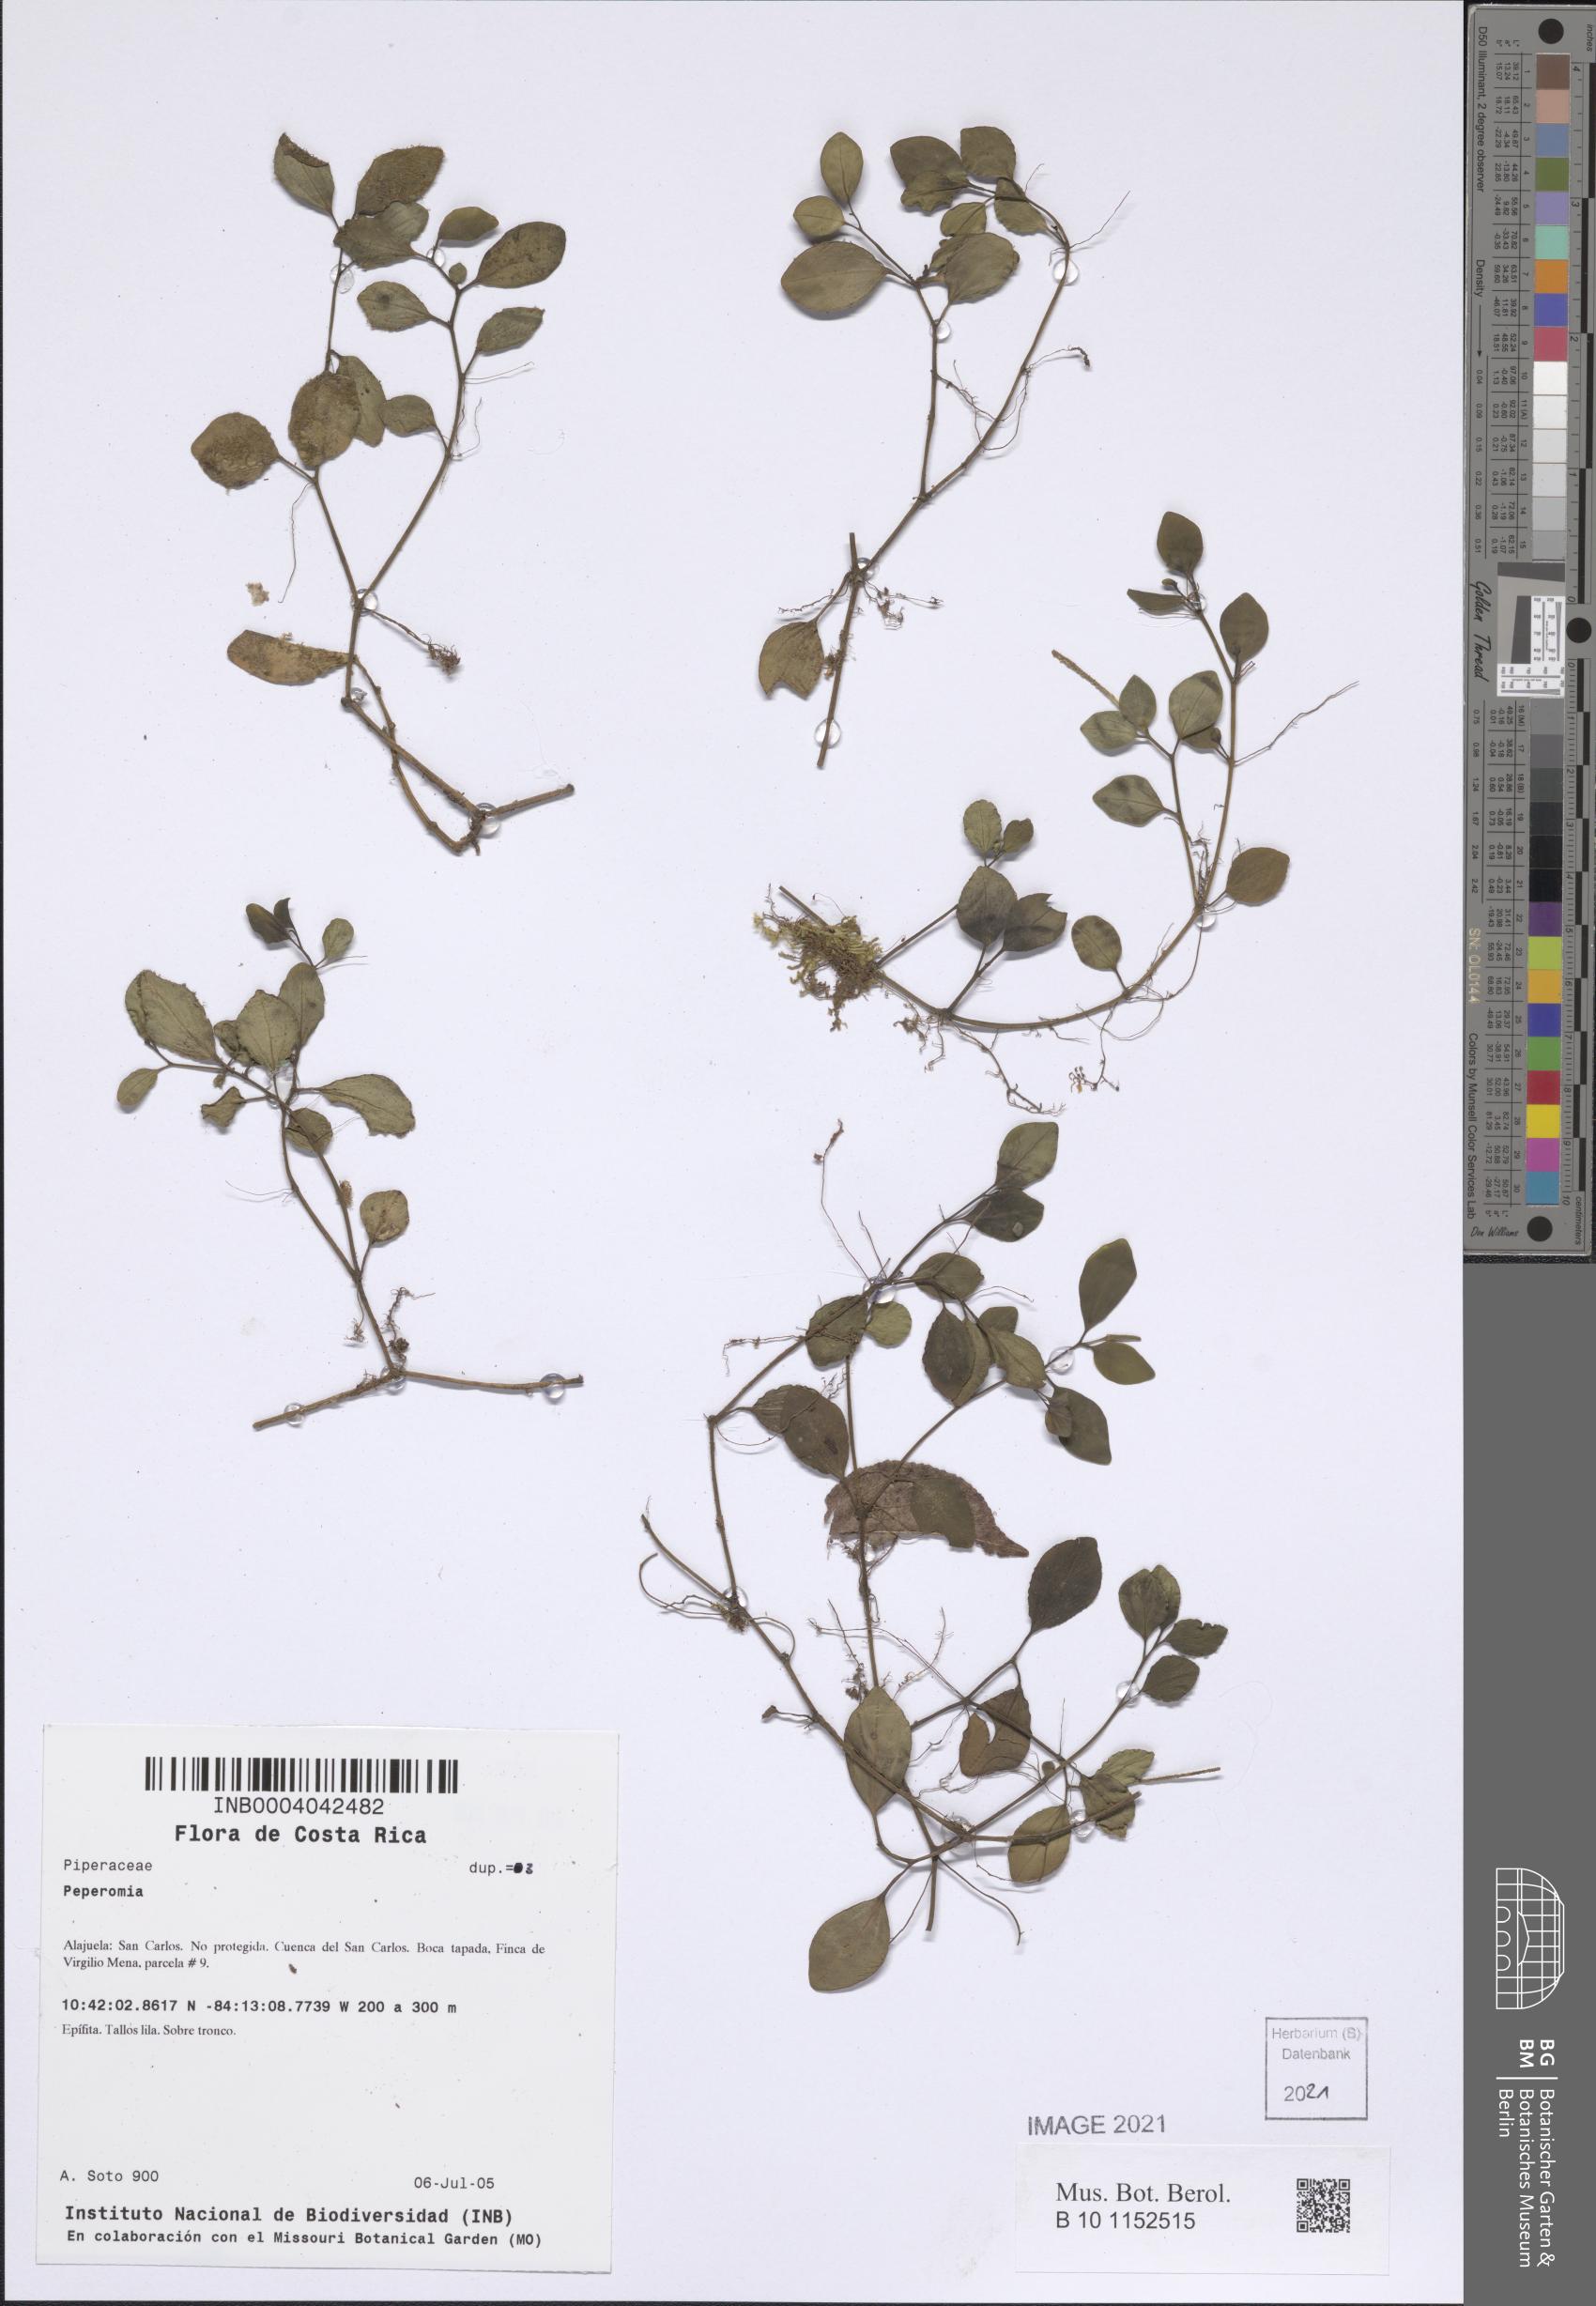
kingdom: Plantae
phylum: Tracheophyta
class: Magnoliopsida
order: Piperales
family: Piperaceae
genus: Peperomia
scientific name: Peperomia
